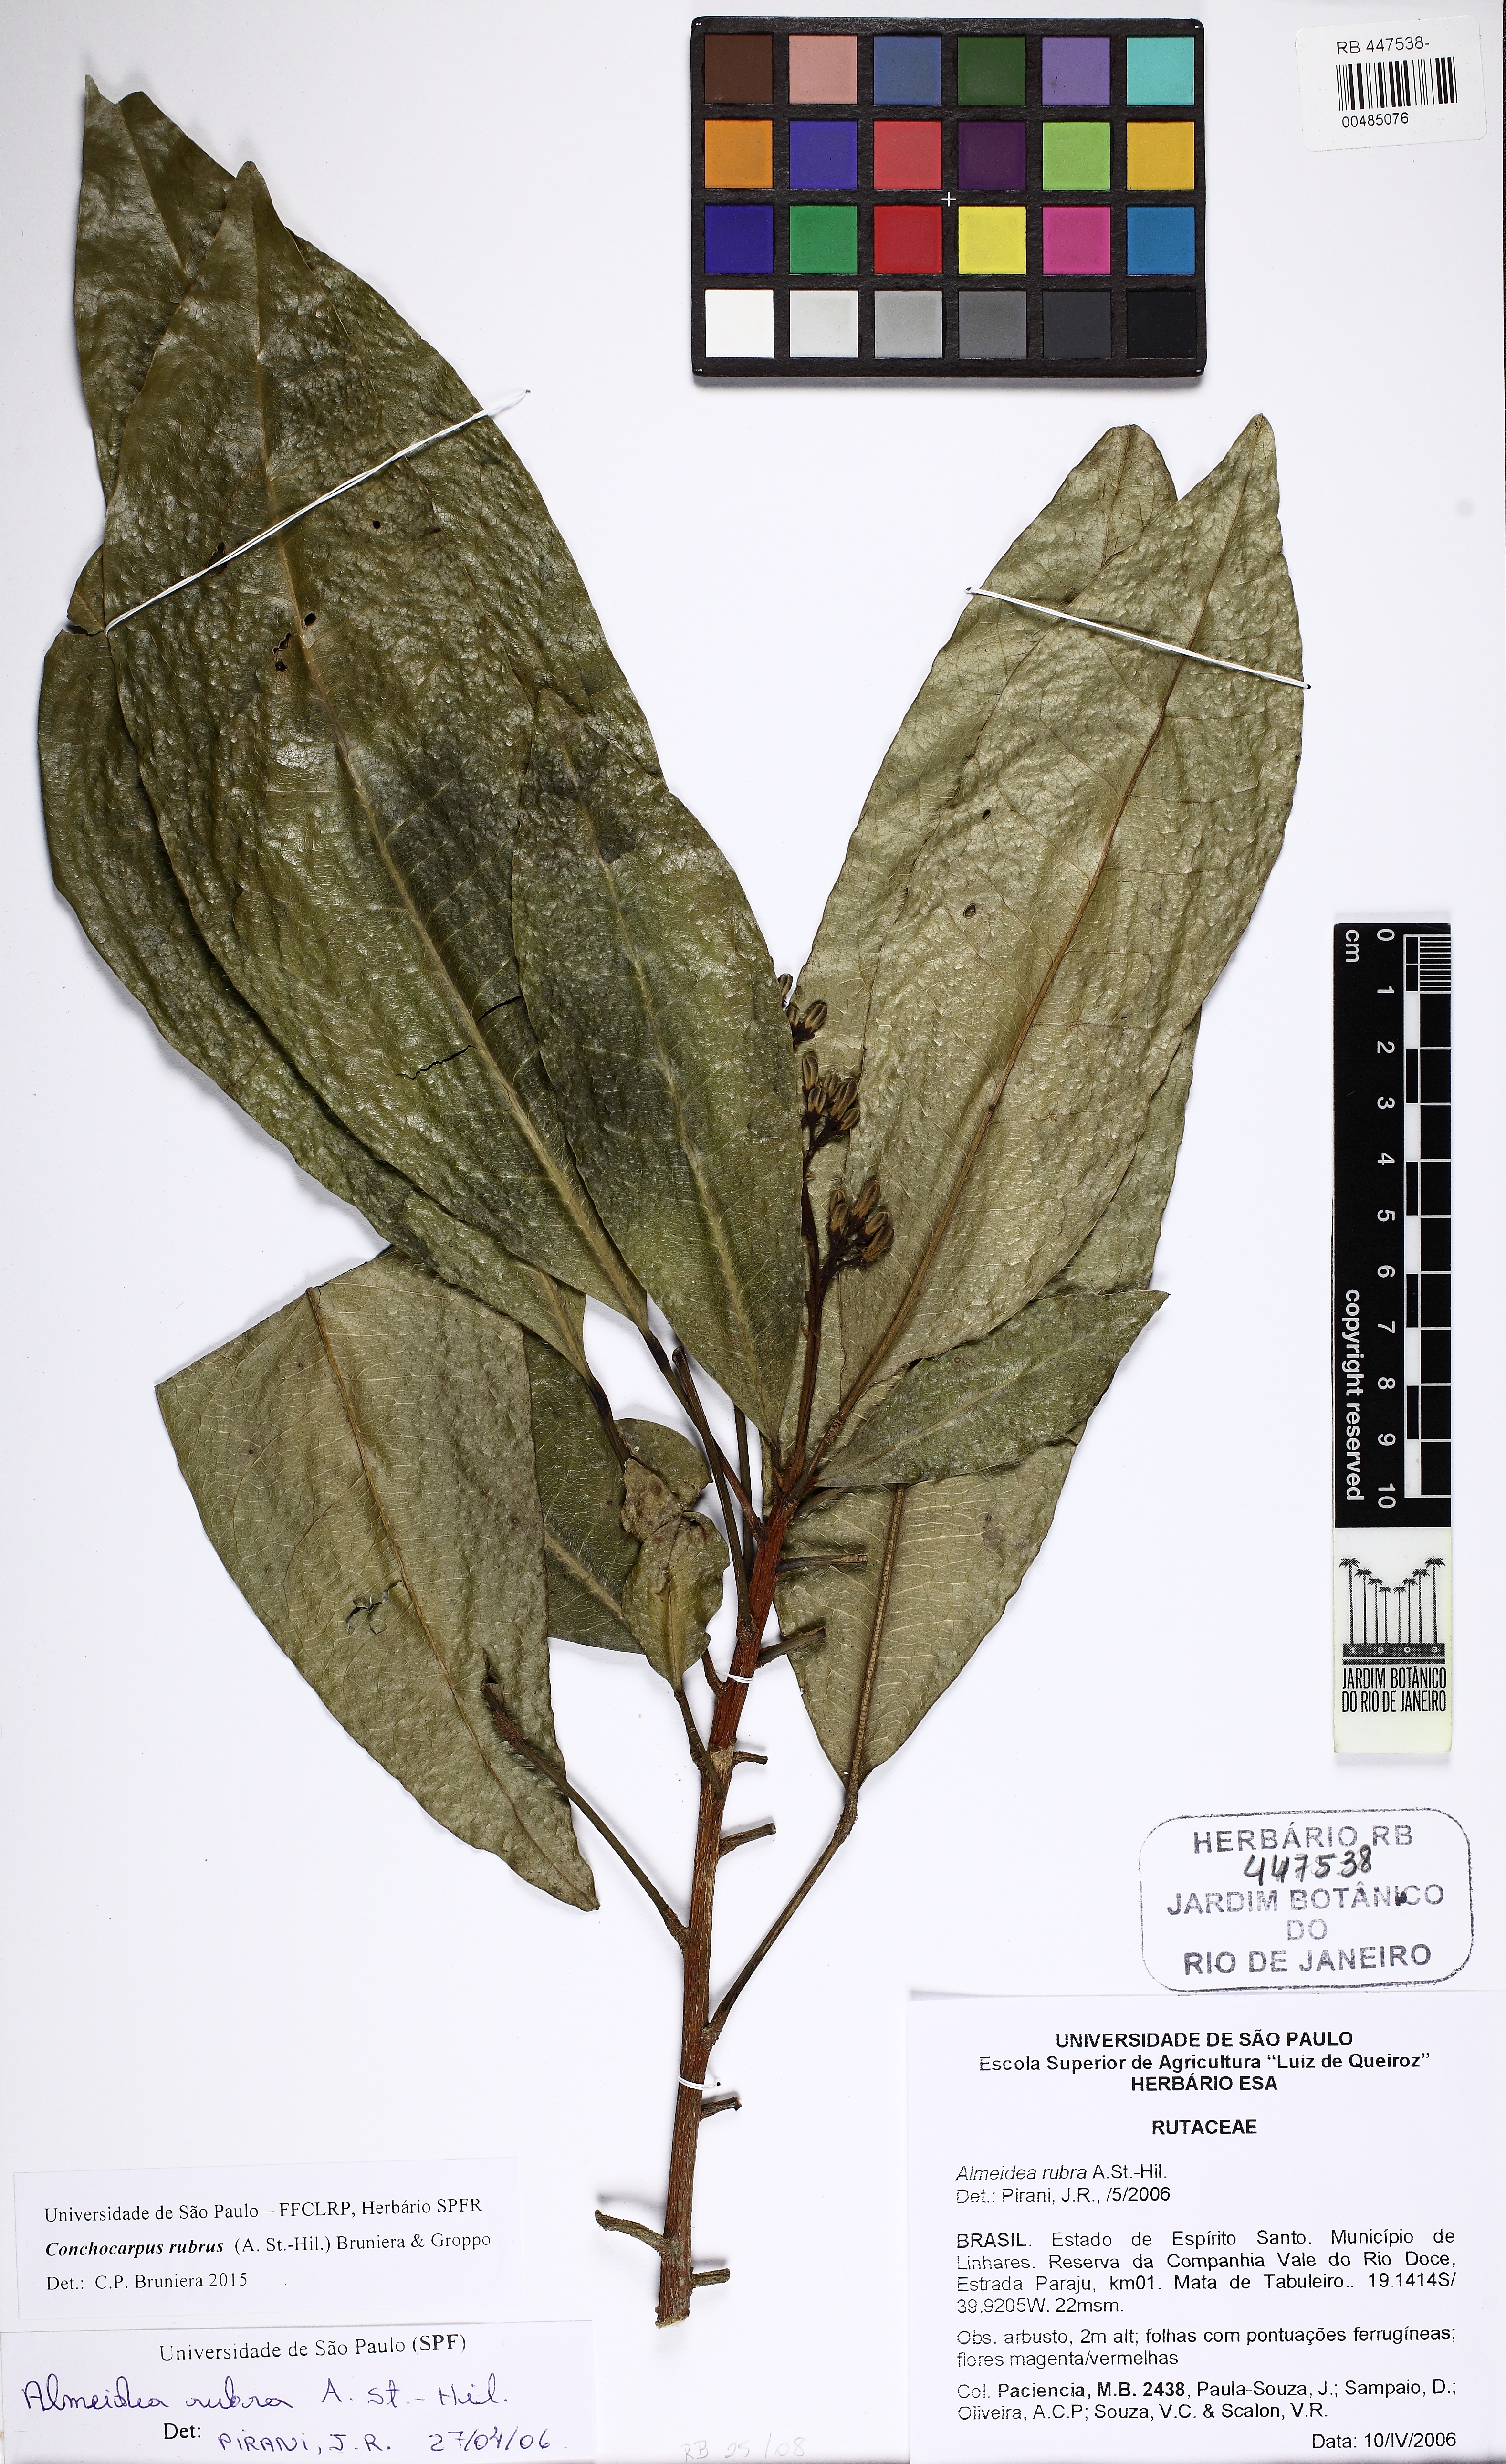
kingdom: Plantae
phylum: Tracheophyta
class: Magnoliopsida
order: Sapindales
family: Rutaceae
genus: Conchocarpus
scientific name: Conchocarpus ruber
